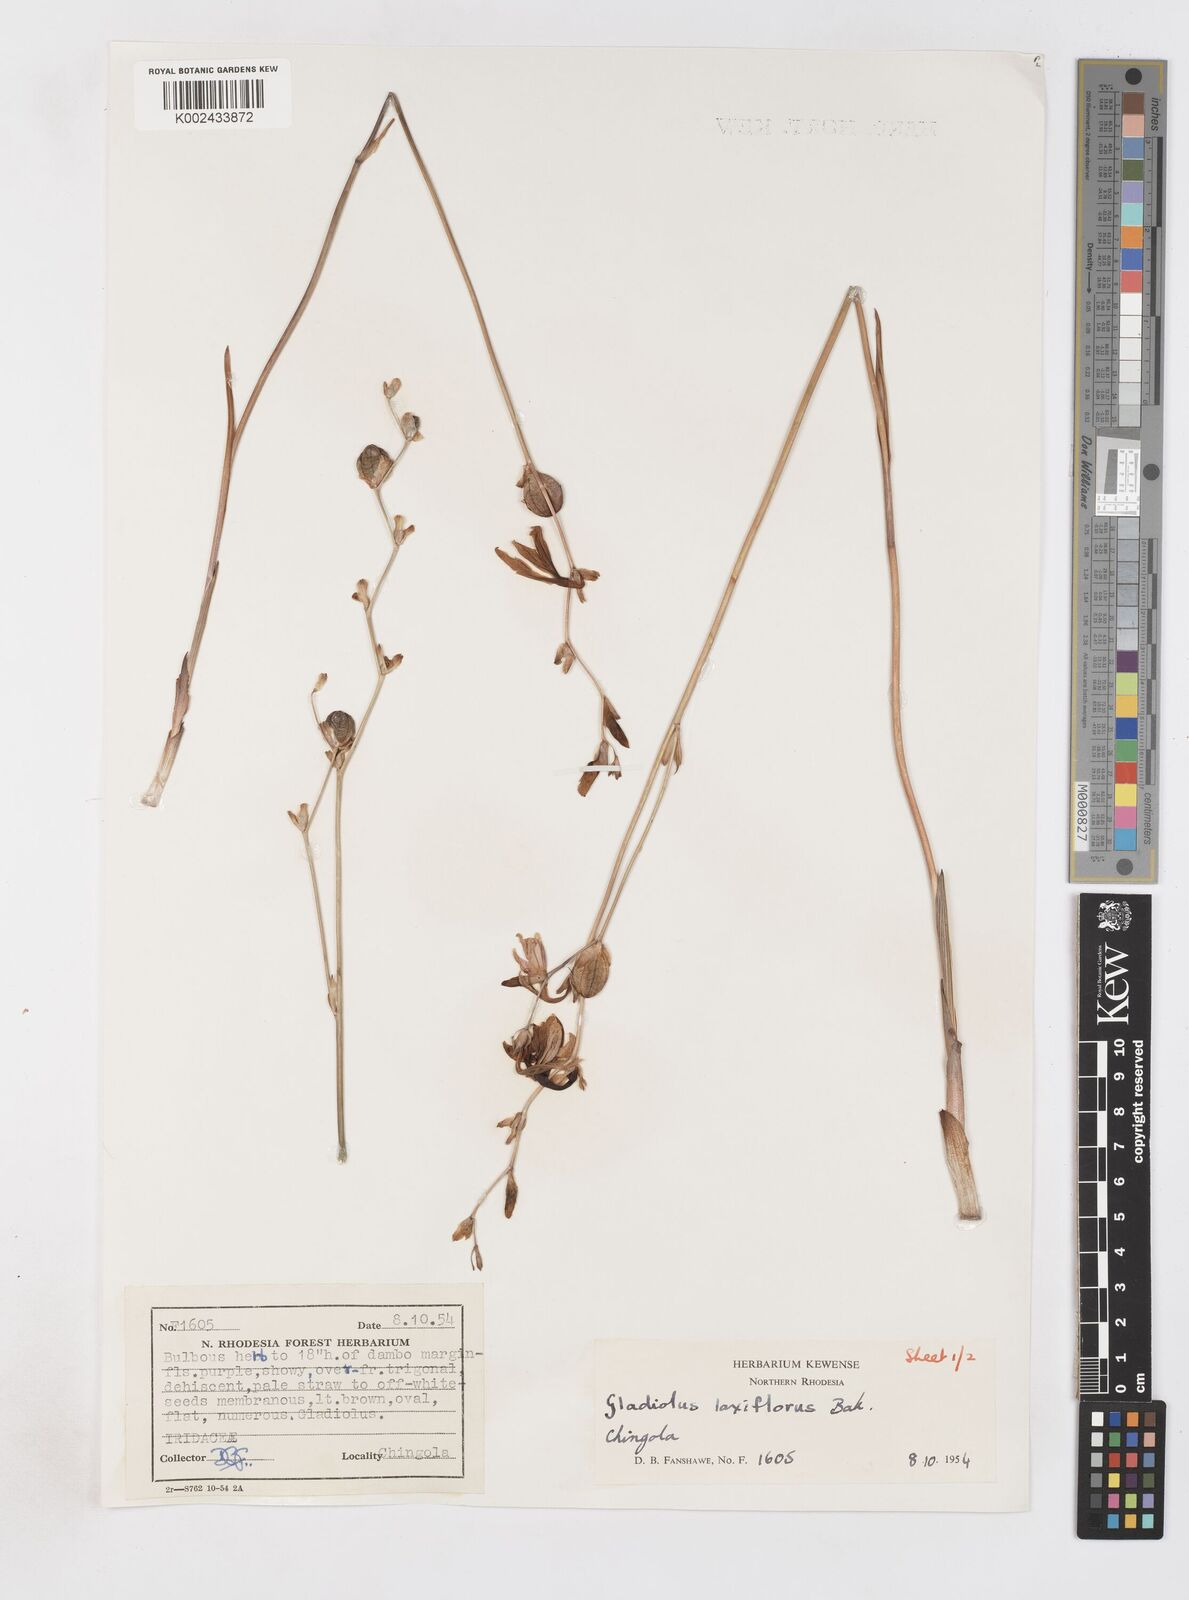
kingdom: Plantae
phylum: Tracheophyta
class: Liliopsida
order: Asparagales
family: Iridaceae
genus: Gladiolus
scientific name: Gladiolus laxiflorus
